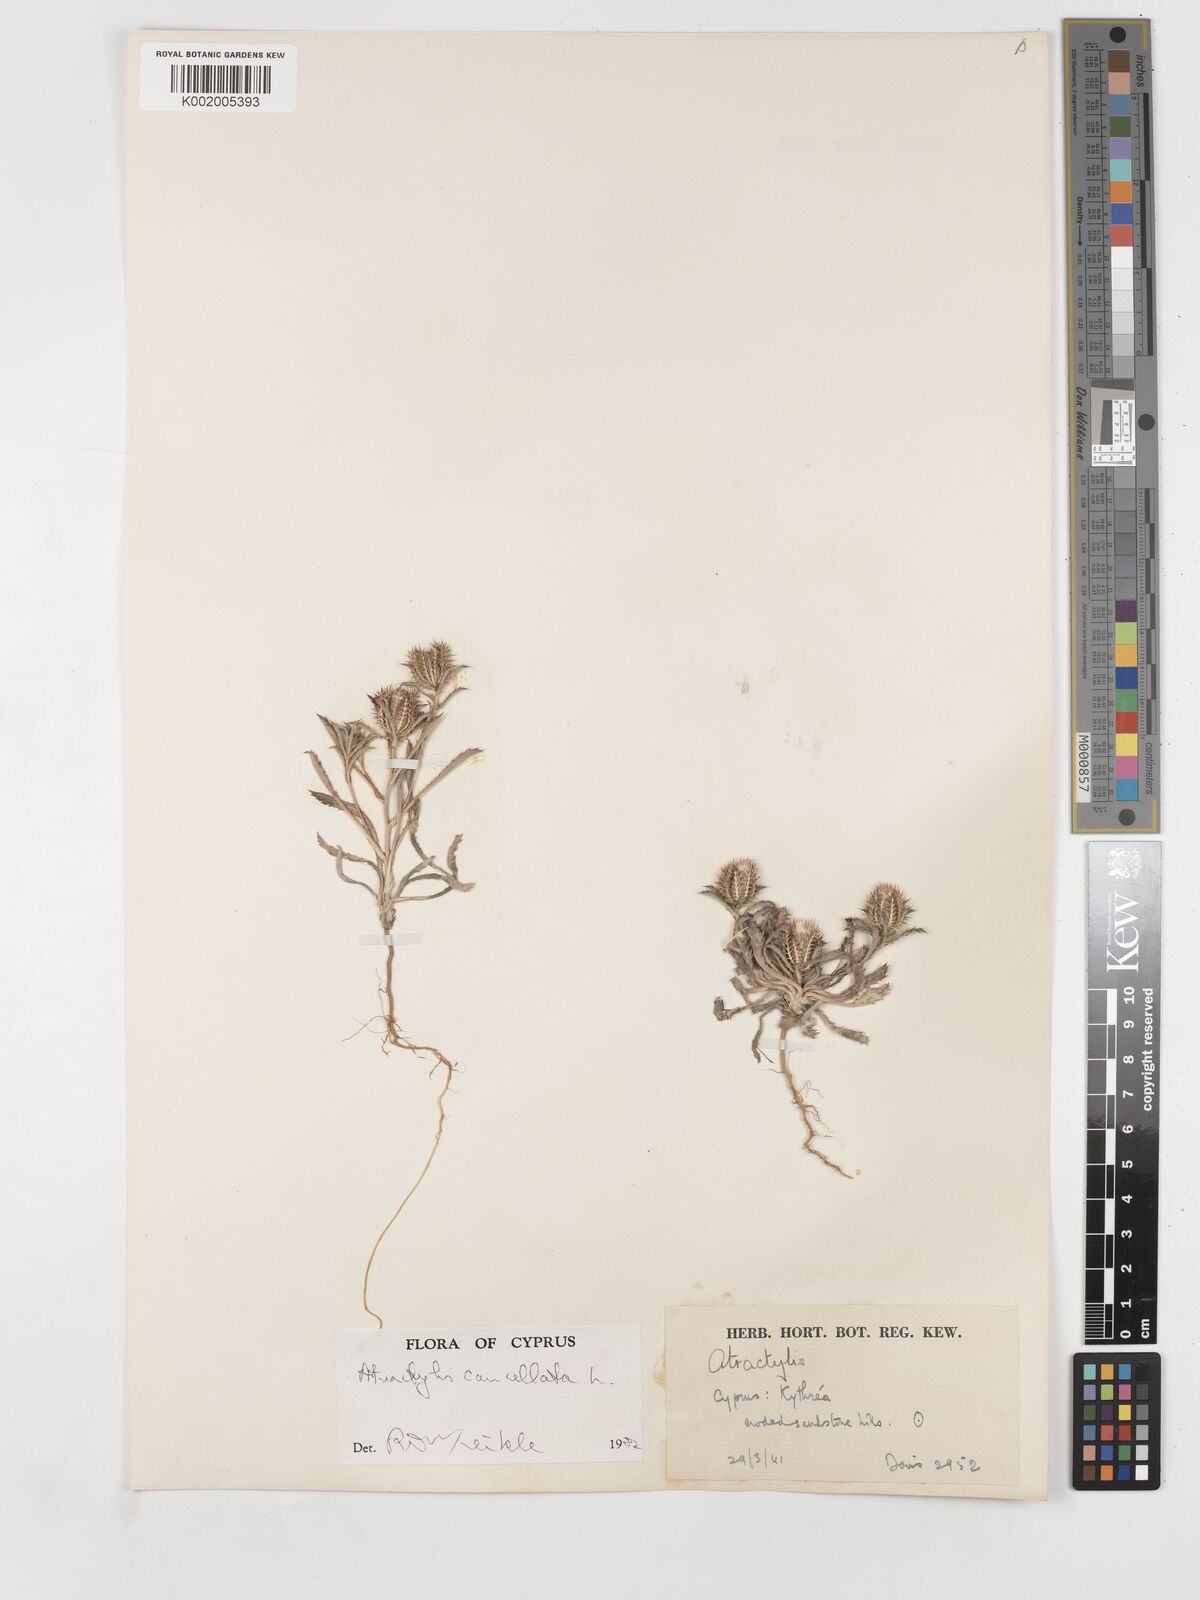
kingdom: Plantae
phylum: Tracheophyta
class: Magnoliopsida
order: Asterales
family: Asteraceae
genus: Atractylis
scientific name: Atractylis cancellata
